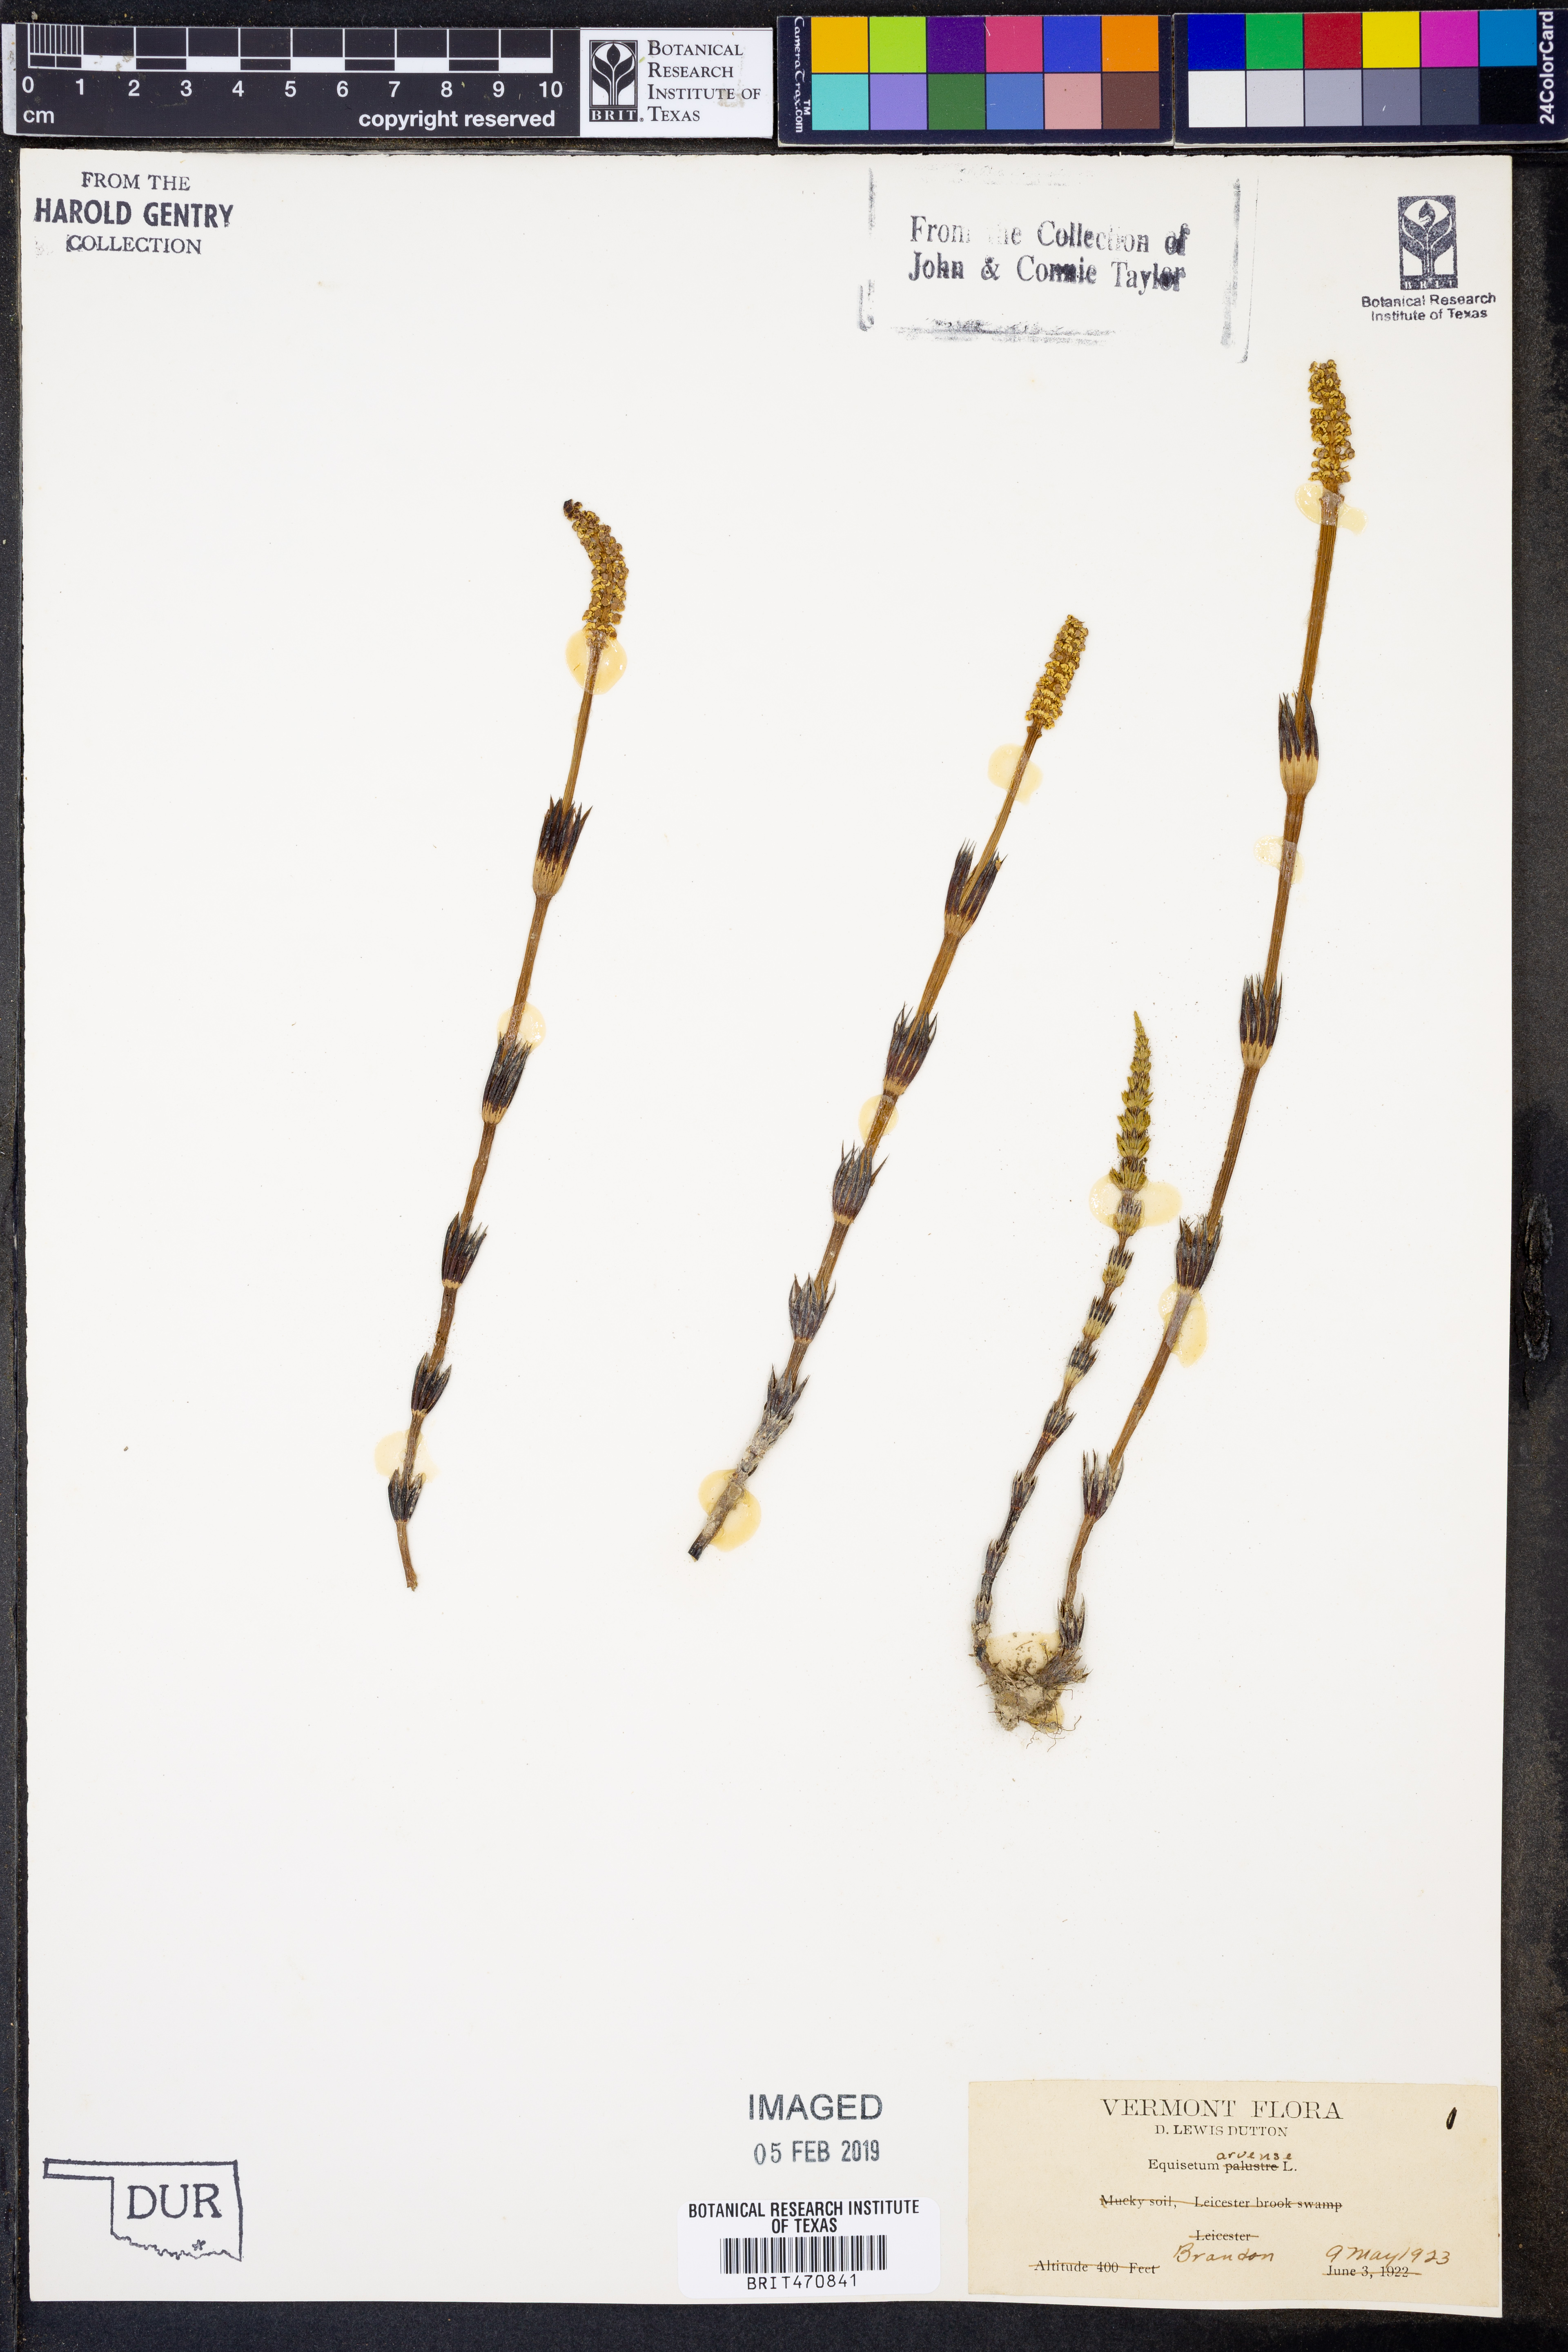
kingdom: Plantae
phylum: Tracheophyta
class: Polypodiopsida
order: Equisetales
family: Equisetaceae
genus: Equisetum
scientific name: Equisetum arvense
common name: Field horsetail
